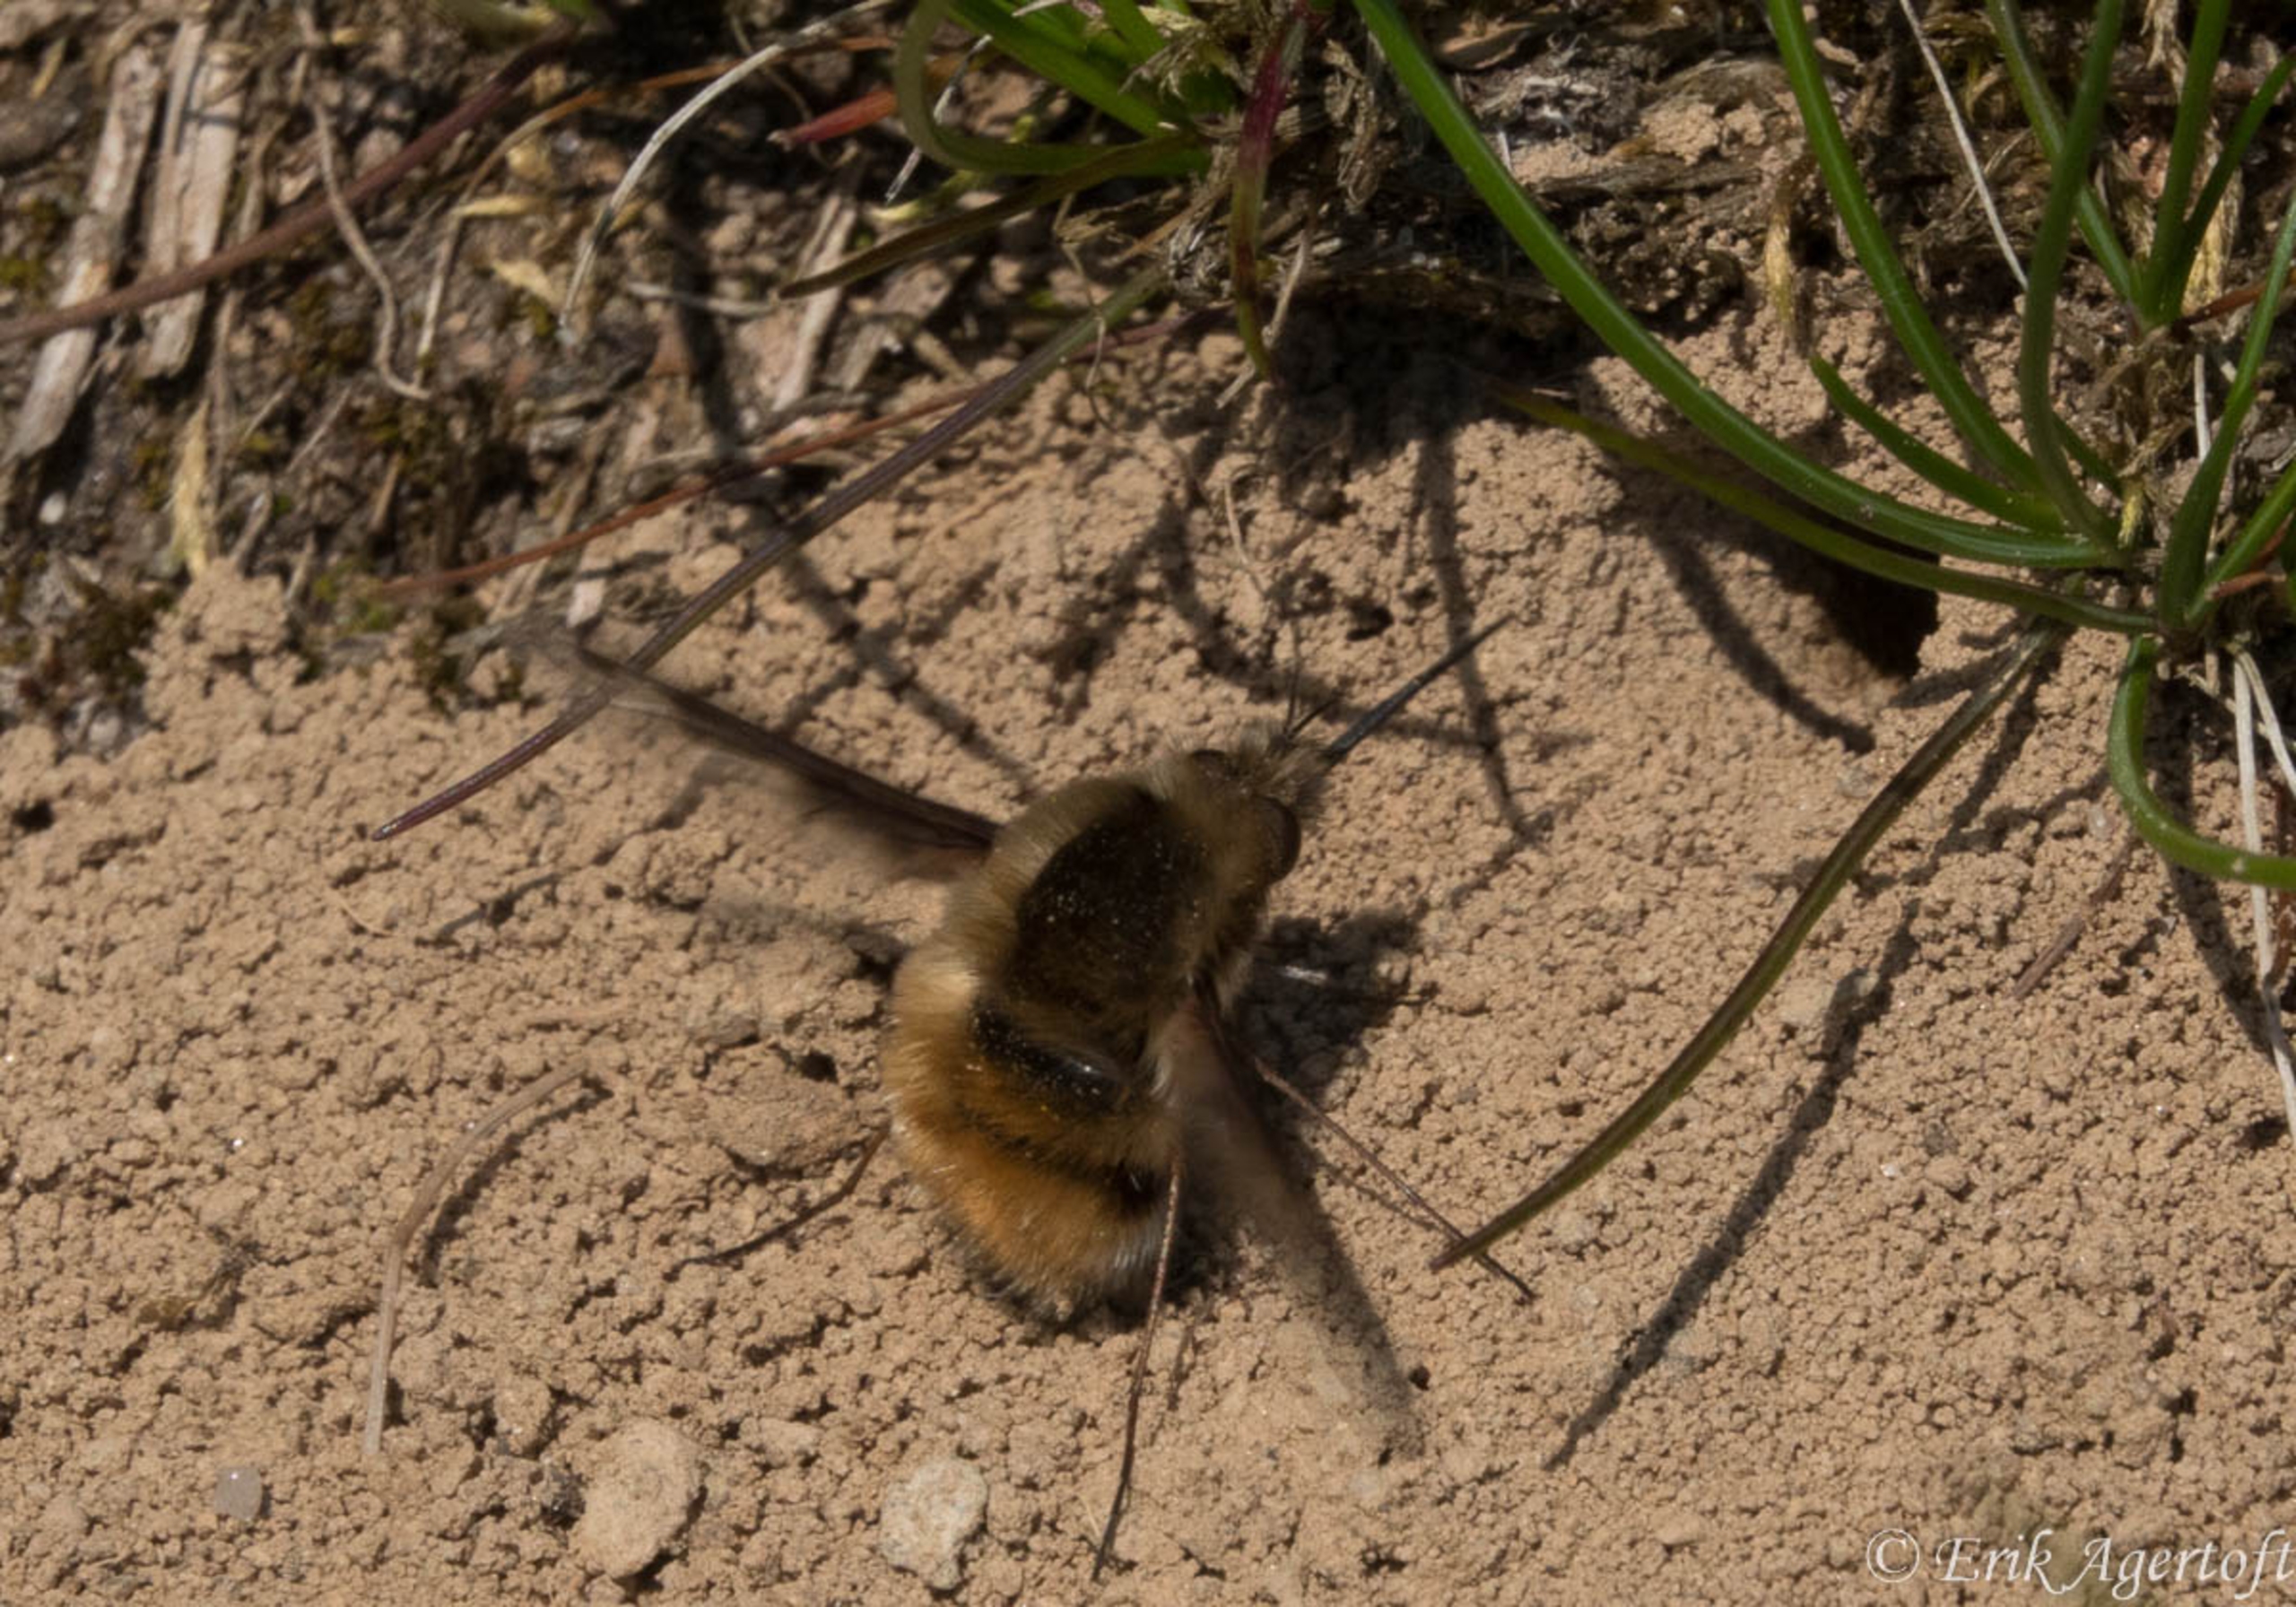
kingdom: Animalia
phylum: Arthropoda
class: Insecta
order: Diptera
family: Bombyliidae
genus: Bombylius
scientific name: Bombylius major
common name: Stor humleflue
